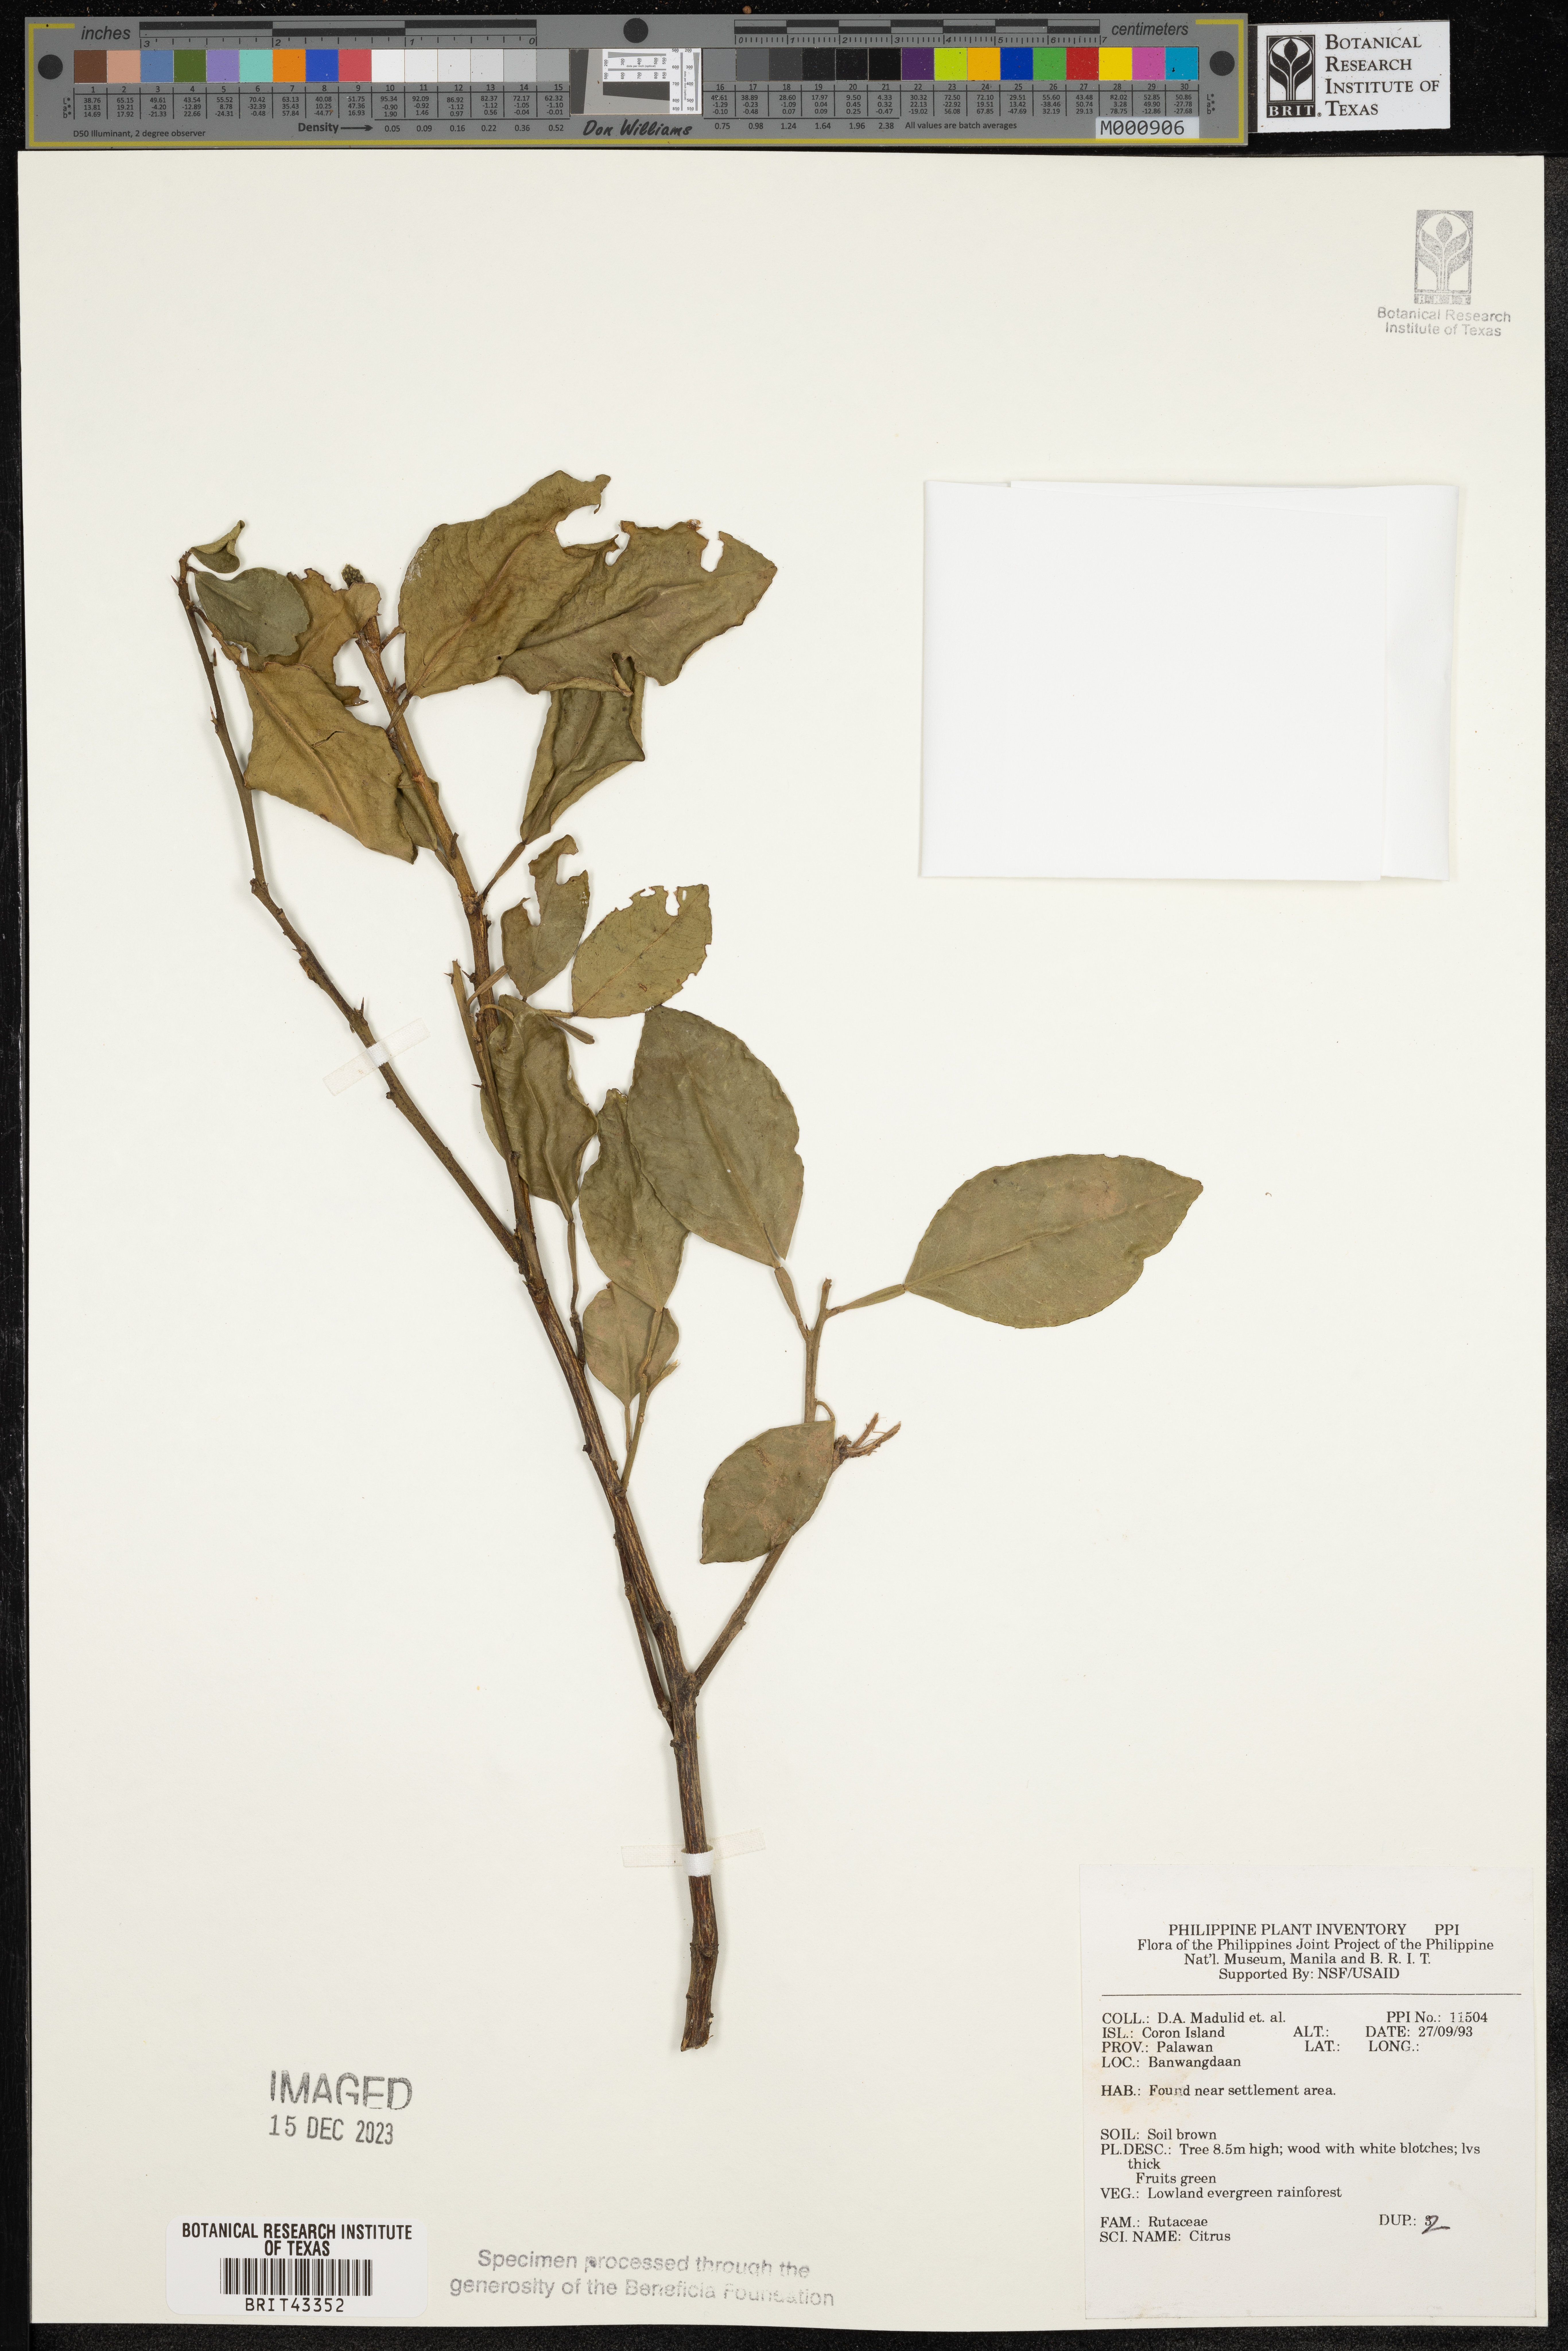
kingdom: Plantae
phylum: Tracheophyta
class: Magnoliopsida
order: Sapindales
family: Rutaceae
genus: Citrus
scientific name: Citrus
